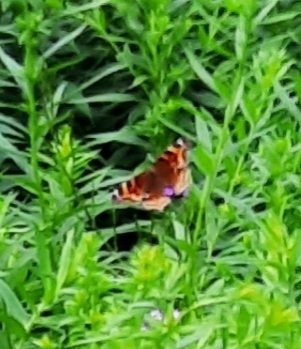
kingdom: Animalia
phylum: Arthropoda
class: Insecta
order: Lepidoptera
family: Nymphalidae
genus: Polygonia
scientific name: Polygonia vaualbum
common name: Compton Tortoiseshell
